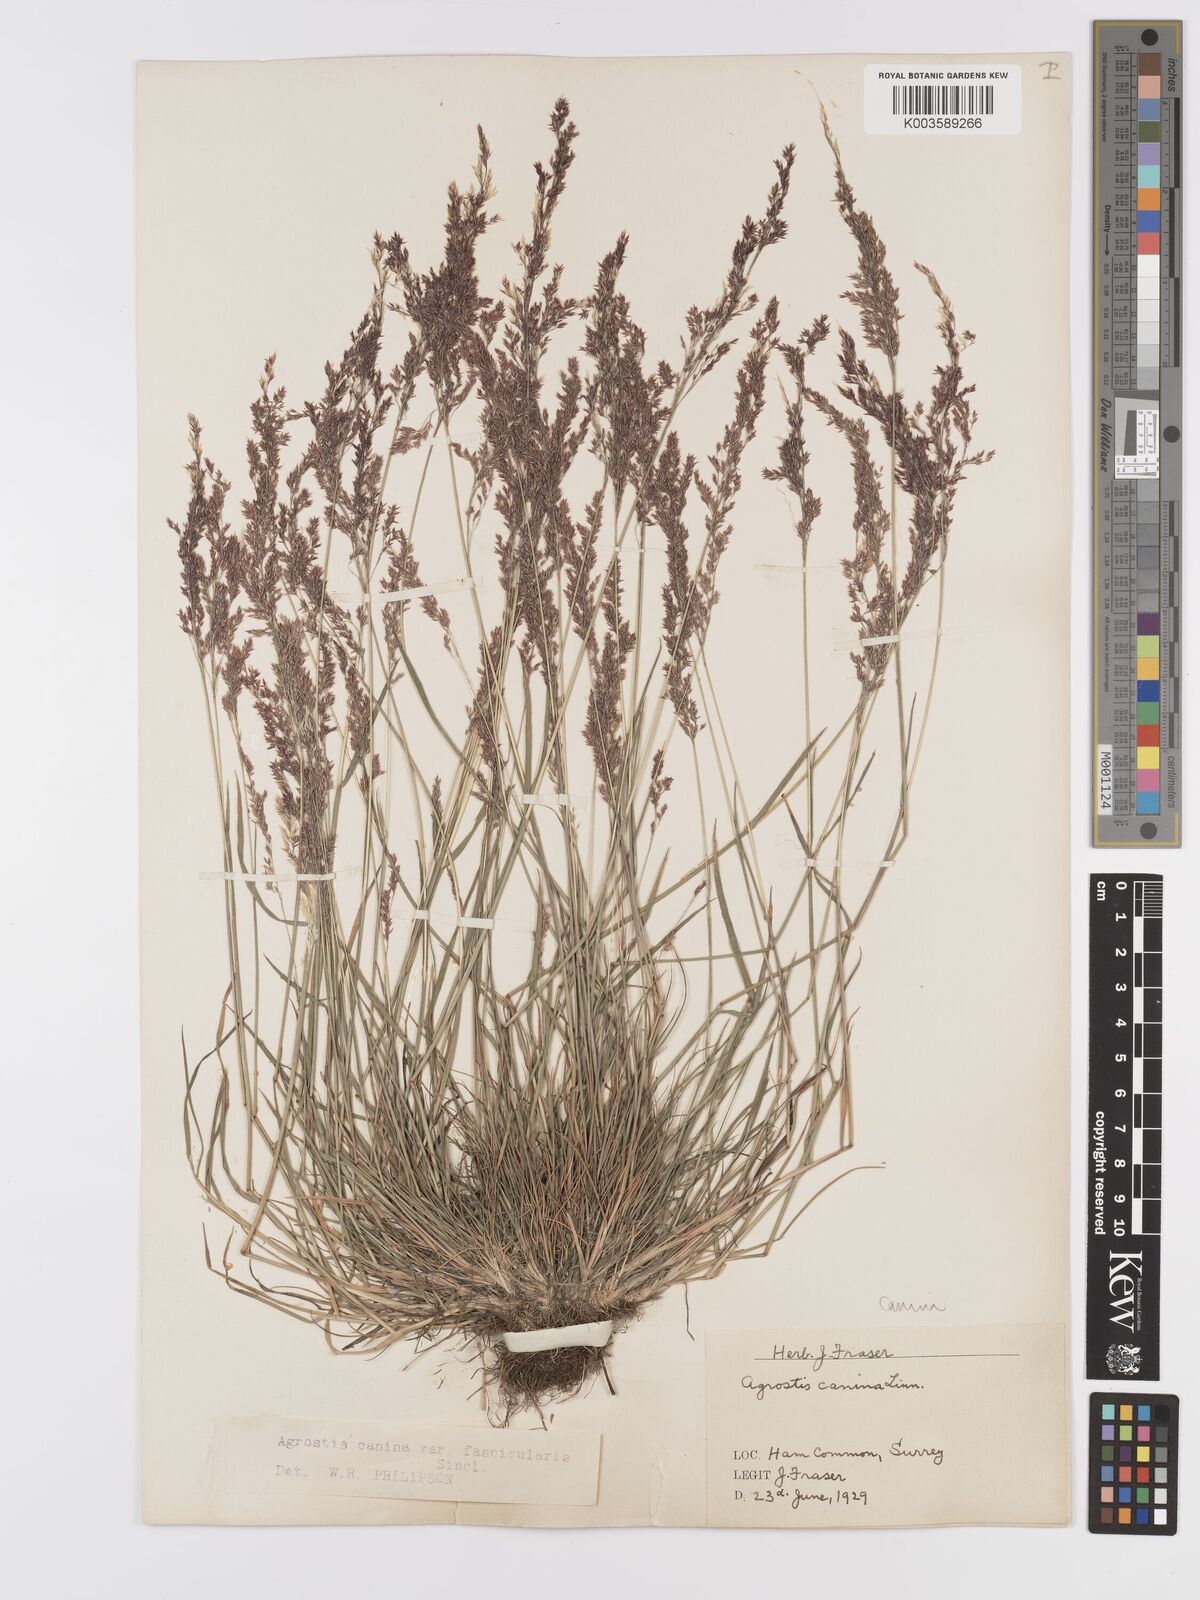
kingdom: Plantae
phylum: Tracheophyta
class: Liliopsida
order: Poales
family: Poaceae
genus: Agrostis
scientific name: Agrostis canina
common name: Velvet bent
